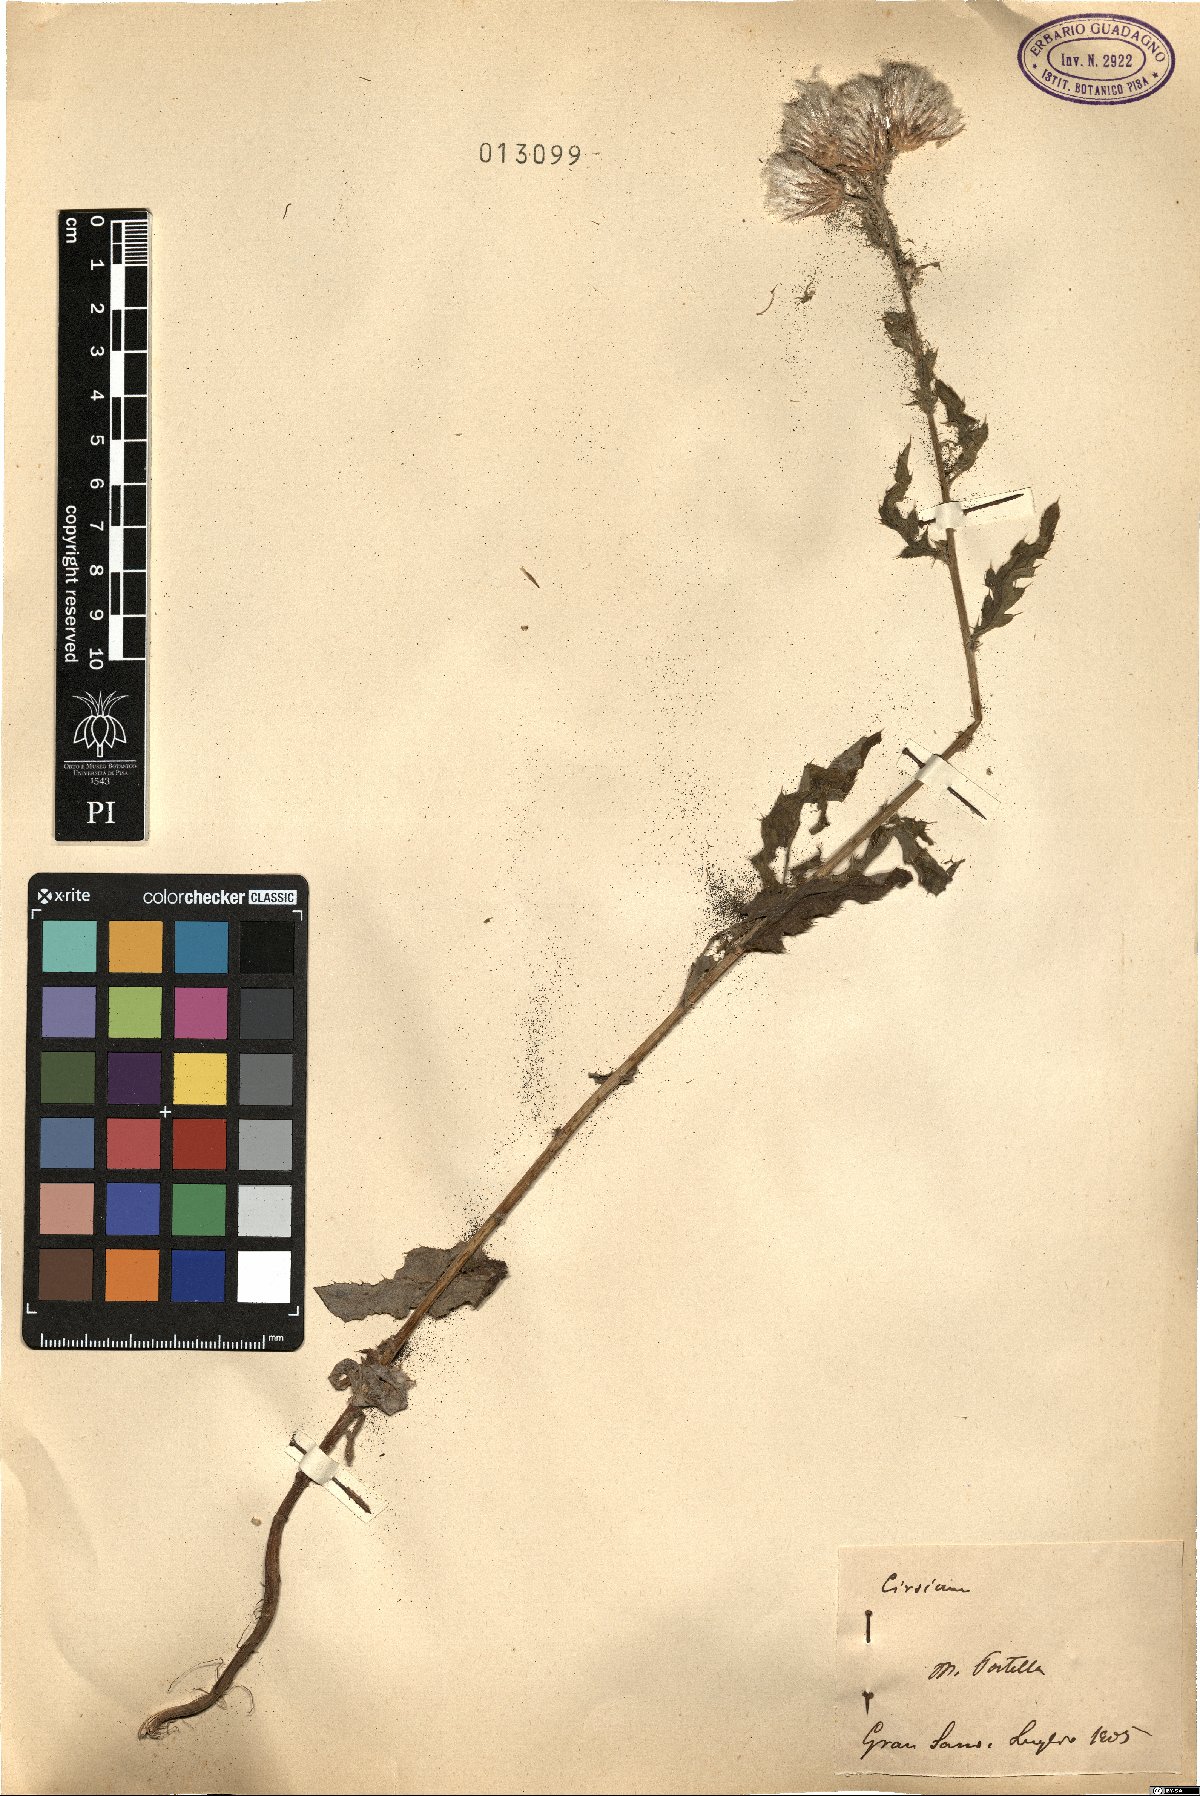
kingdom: Plantae
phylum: Tracheophyta
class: Magnoliopsida
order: Asterales
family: Asteraceae
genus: Cirsium
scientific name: Cirsium
